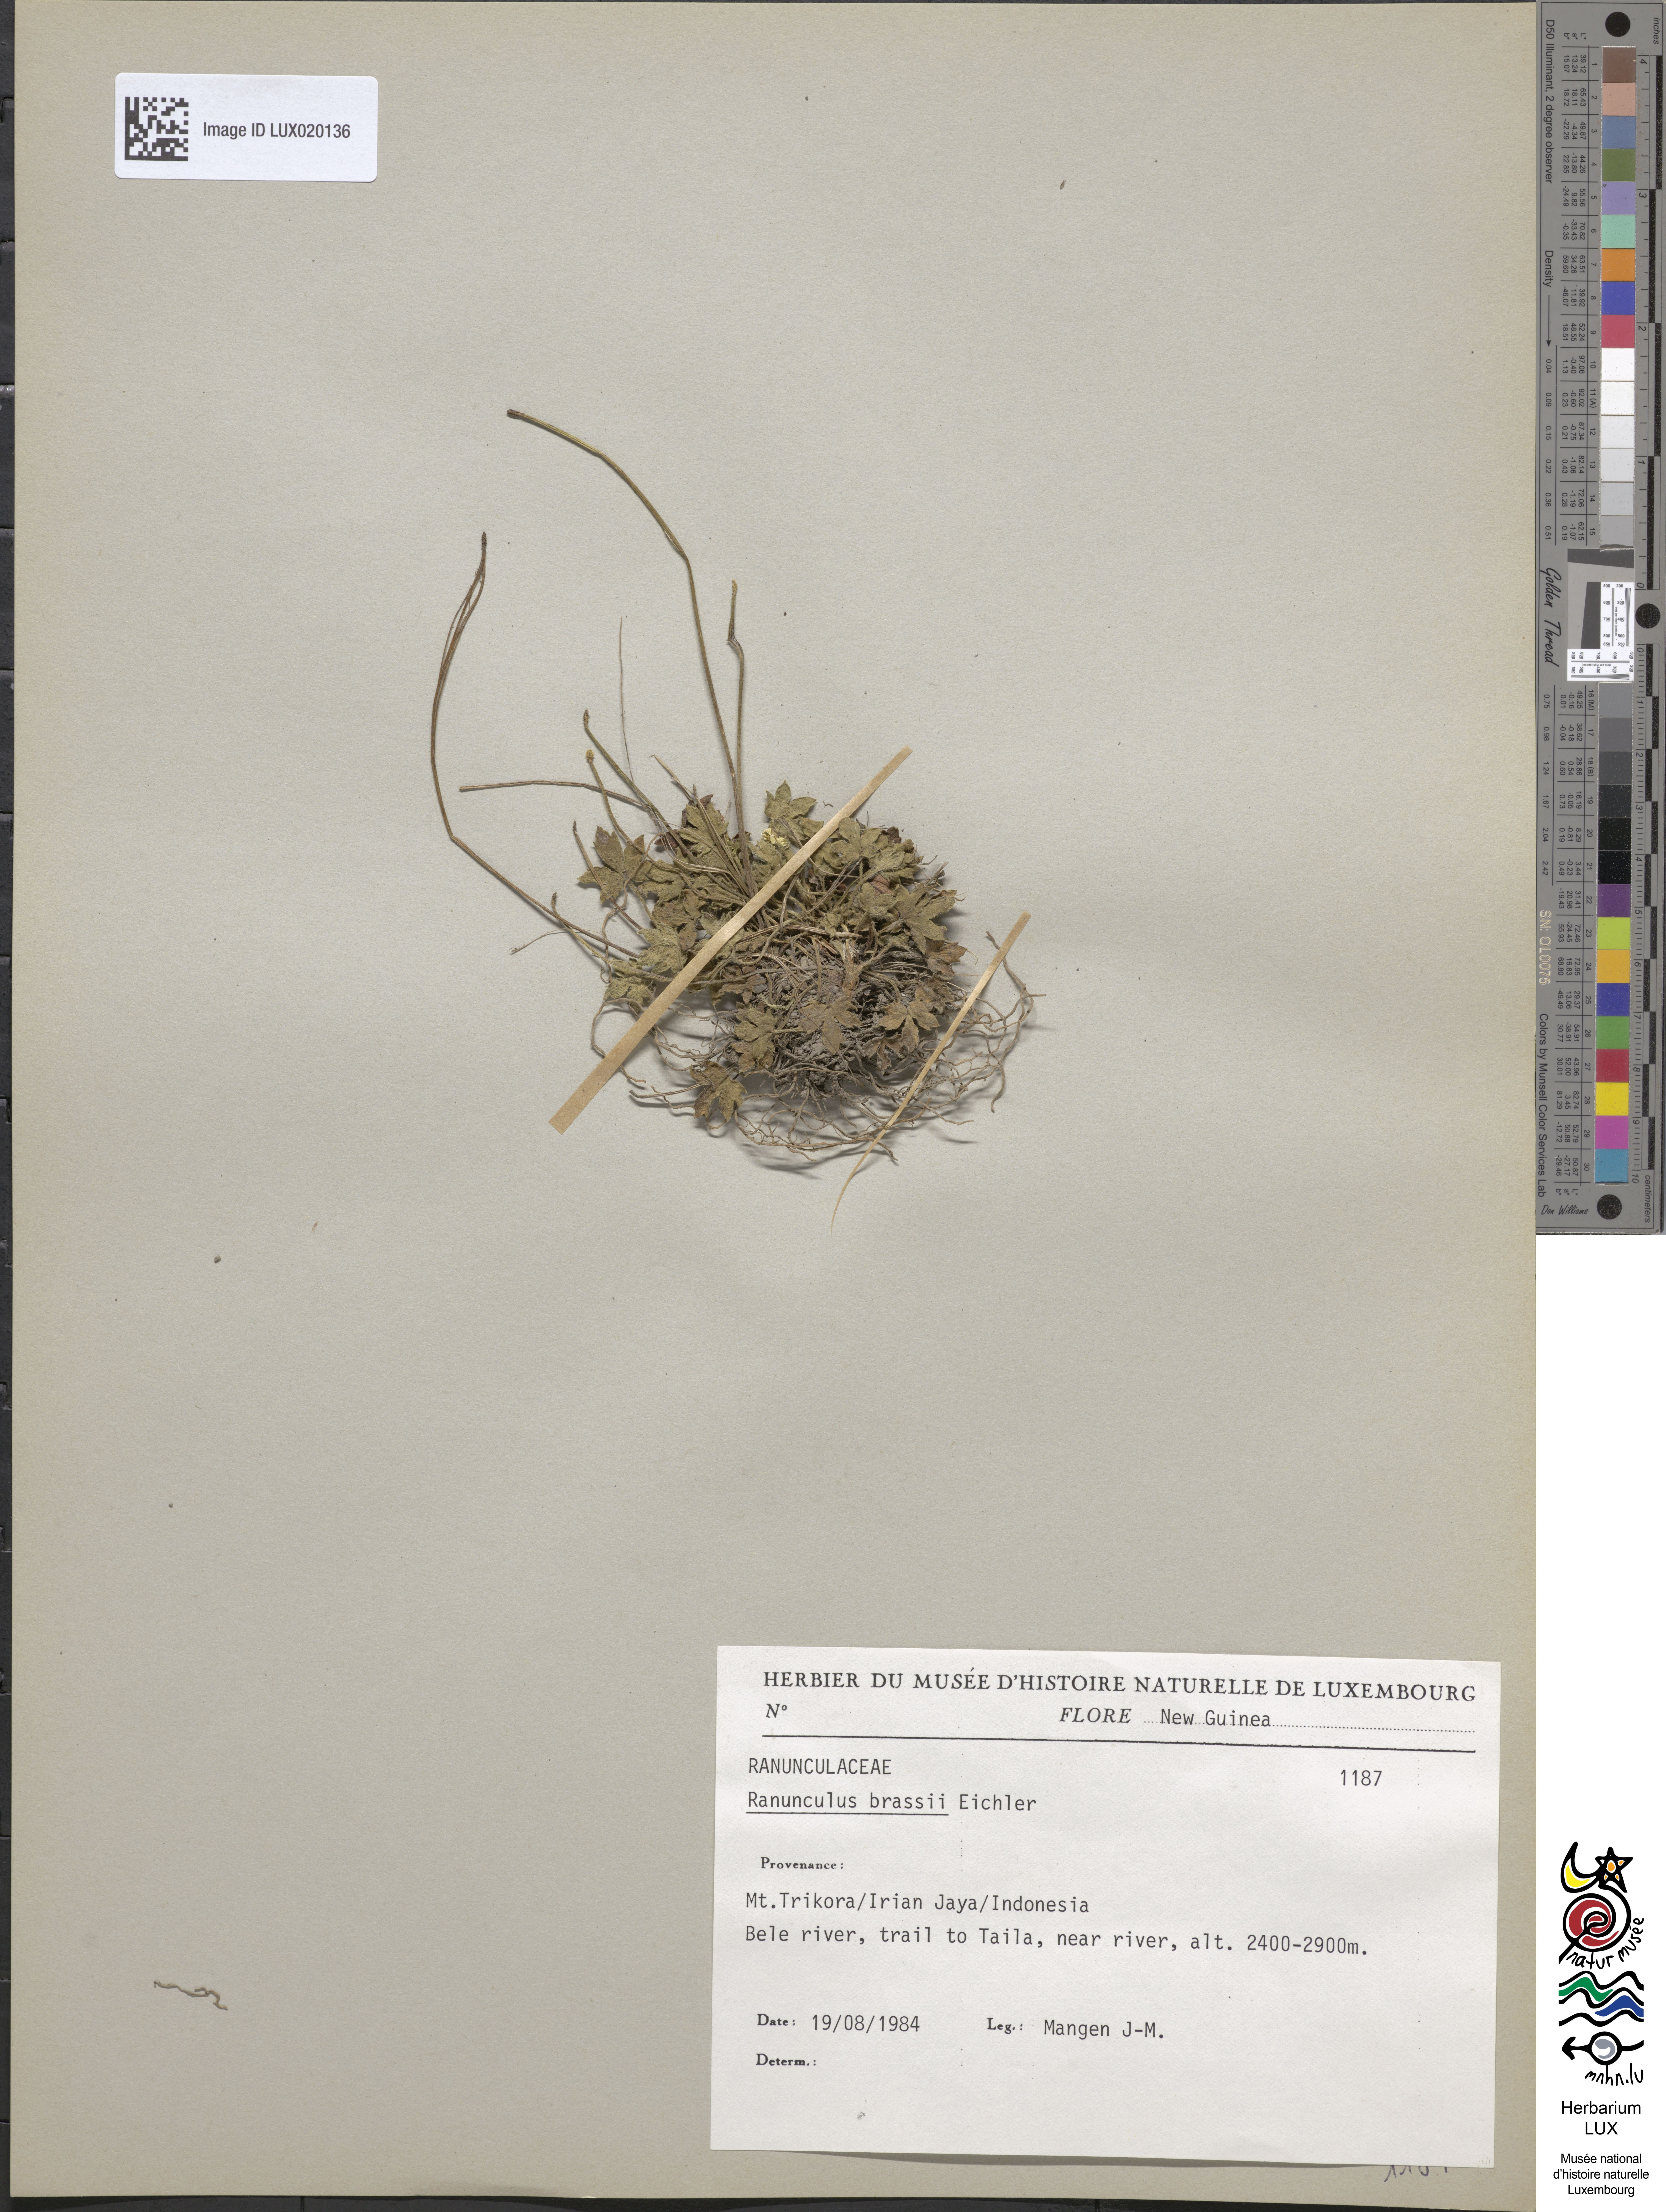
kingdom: Plantae
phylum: Tracheophyta
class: Magnoliopsida
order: Ranunculales
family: Ranunculaceae
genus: Ranunculus
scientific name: Ranunculus brassii
